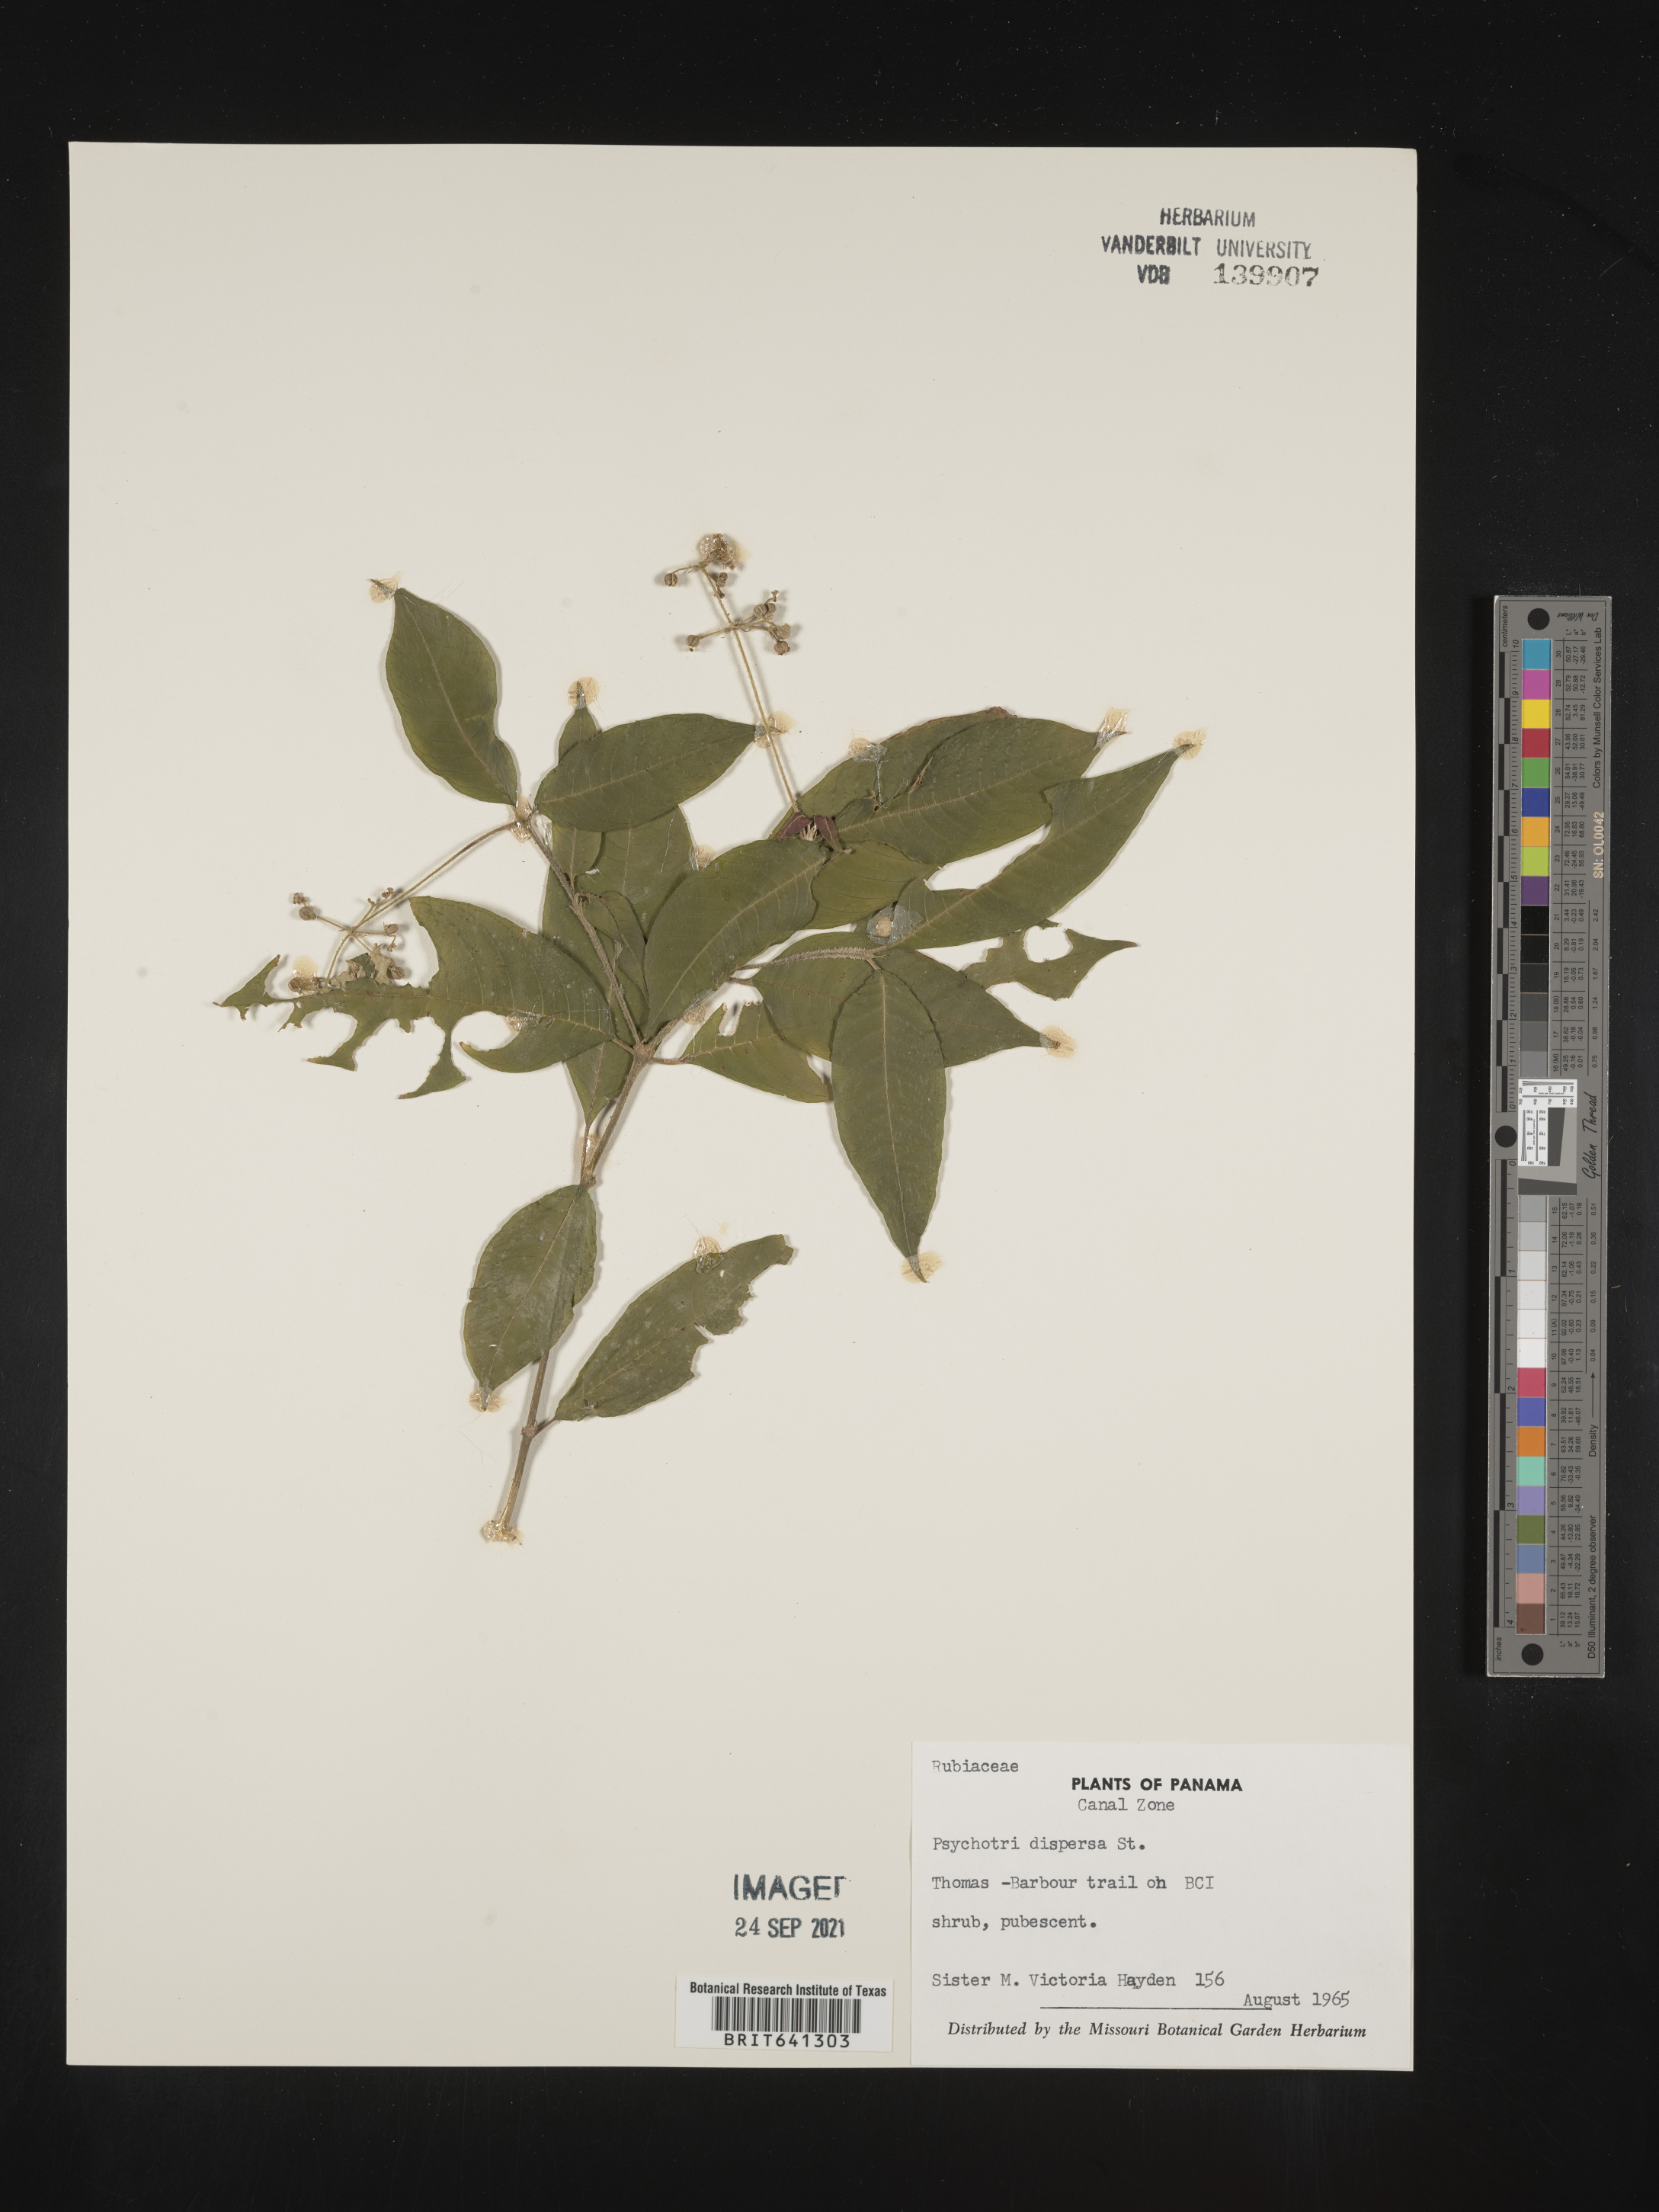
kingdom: Plantae
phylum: Tracheophyta
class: Magnoliopsida
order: Gentianales
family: Rubiaceae
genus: Psychotria
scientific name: Psychotria
